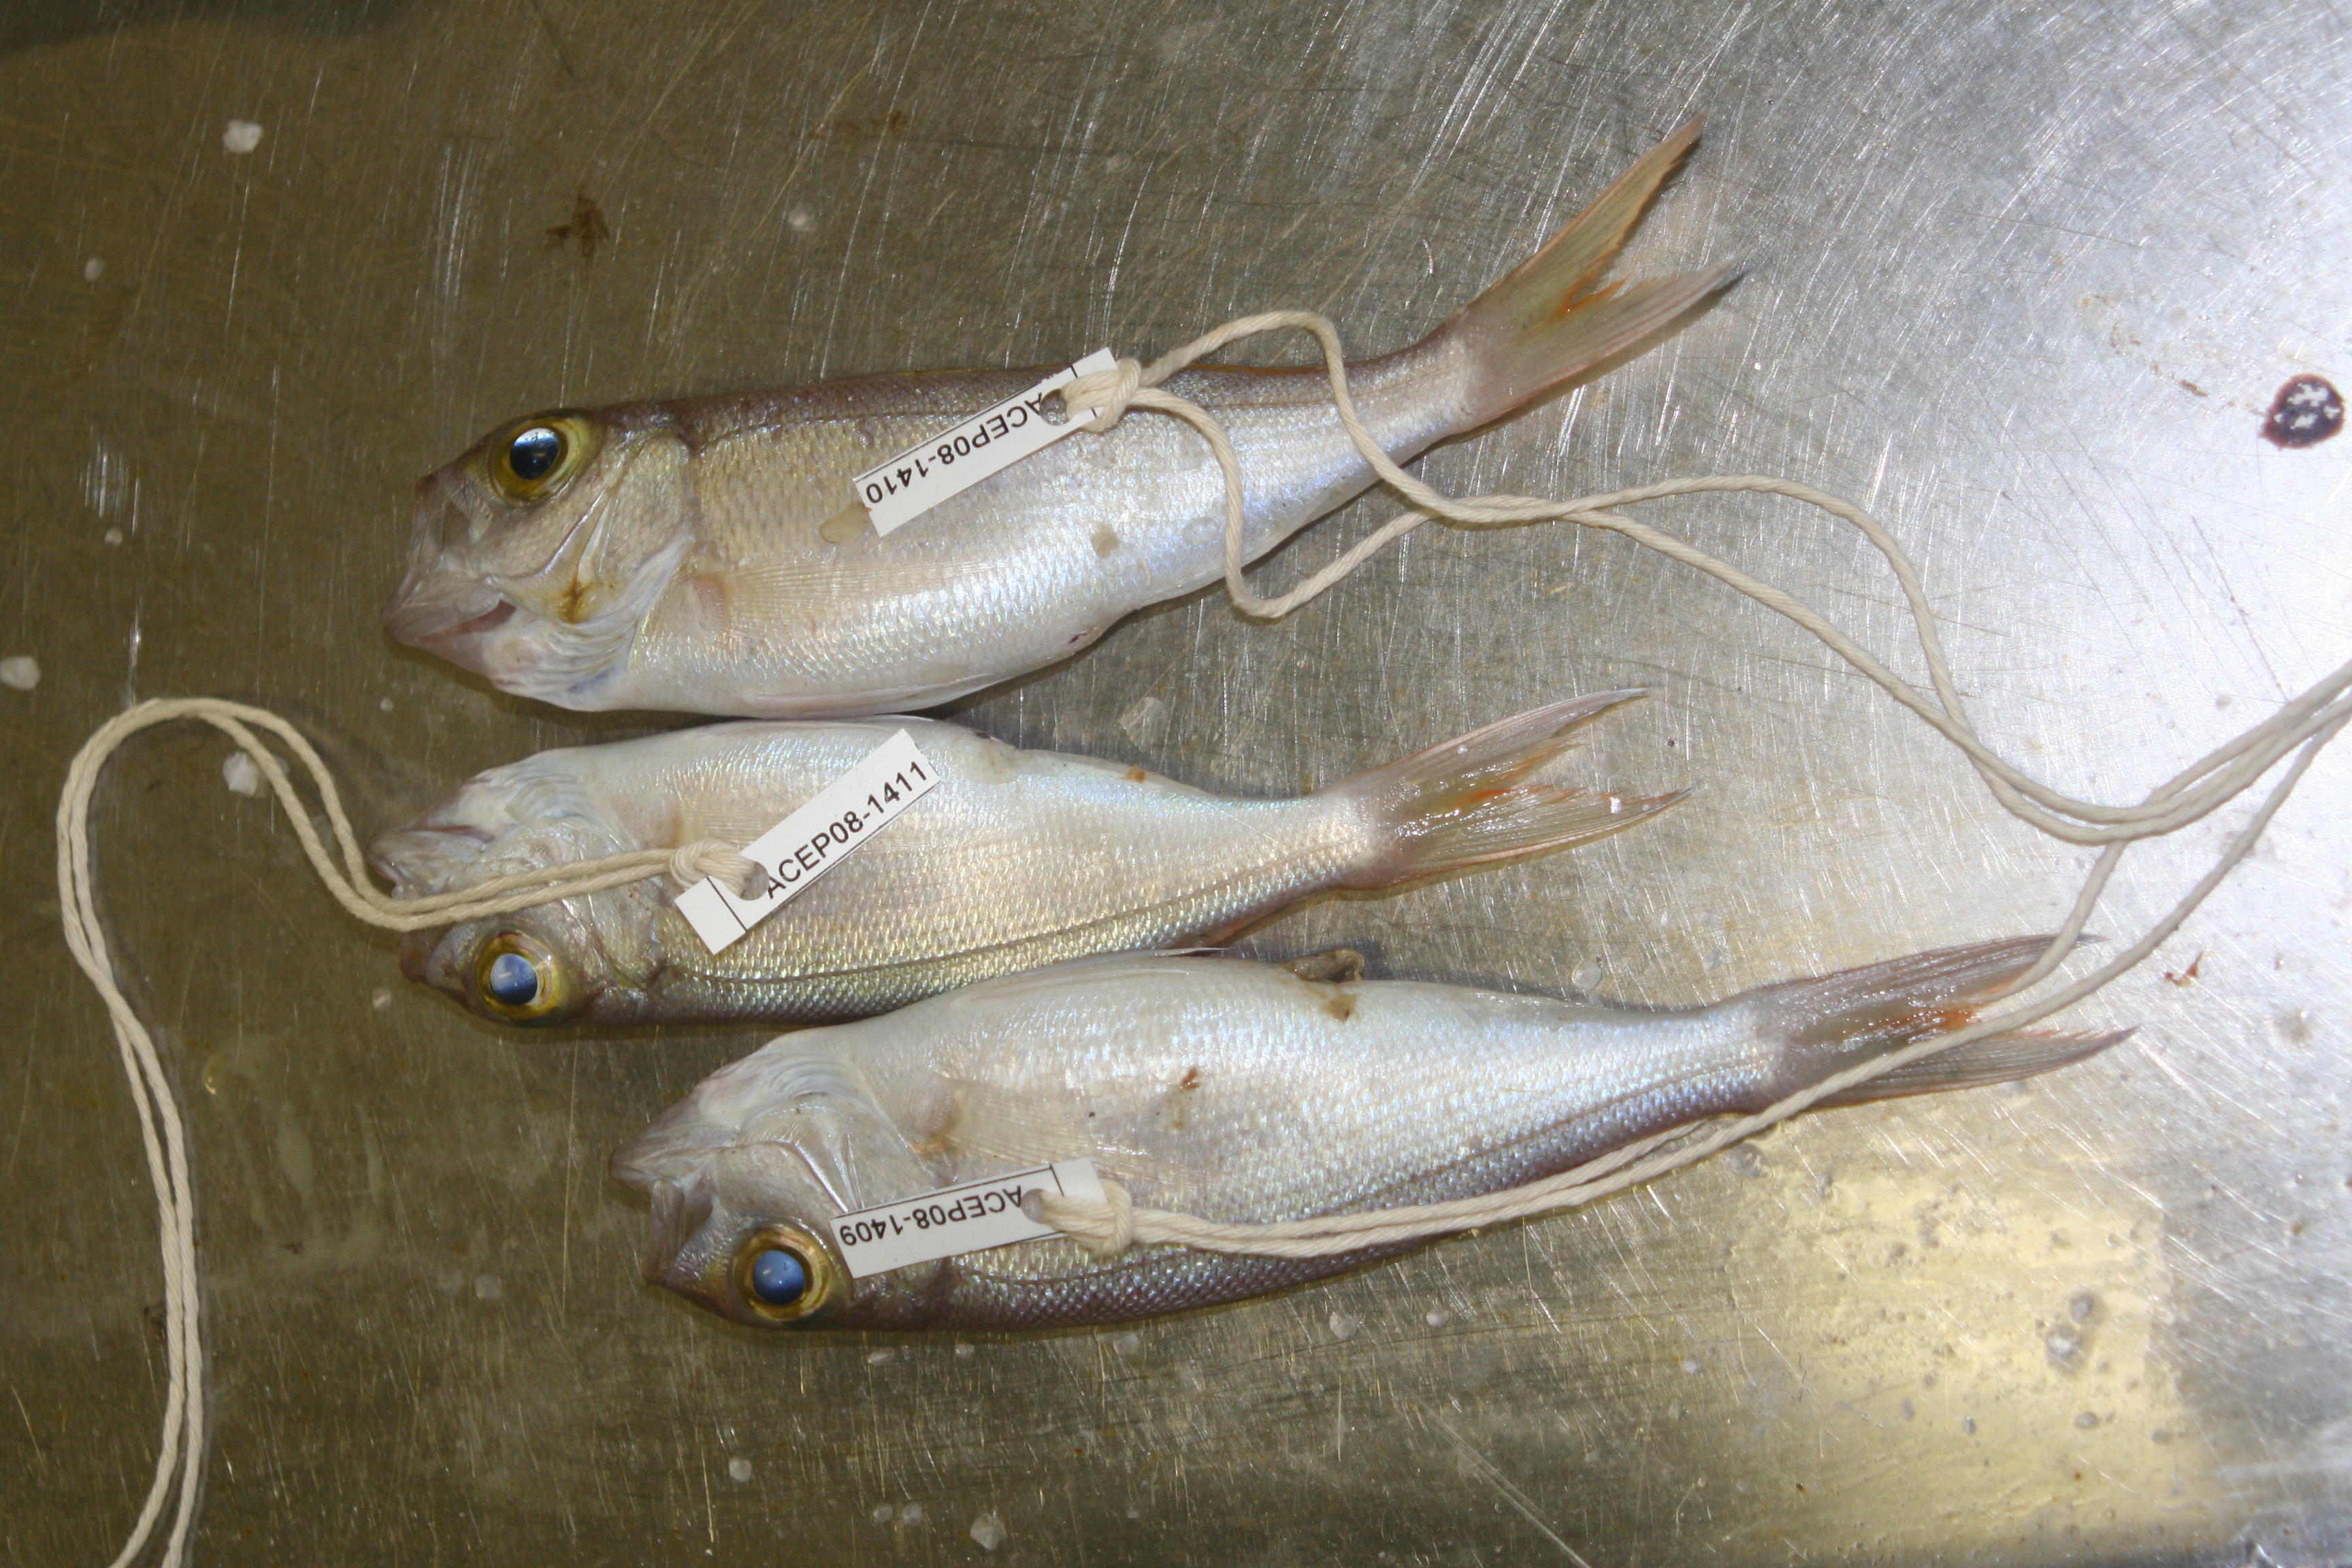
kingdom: Animalia
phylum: Chordata
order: Perciformes
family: Lutjanidae
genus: Pristipomoides
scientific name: Pristipomoides filamentosus
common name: Bluespot jobfish
